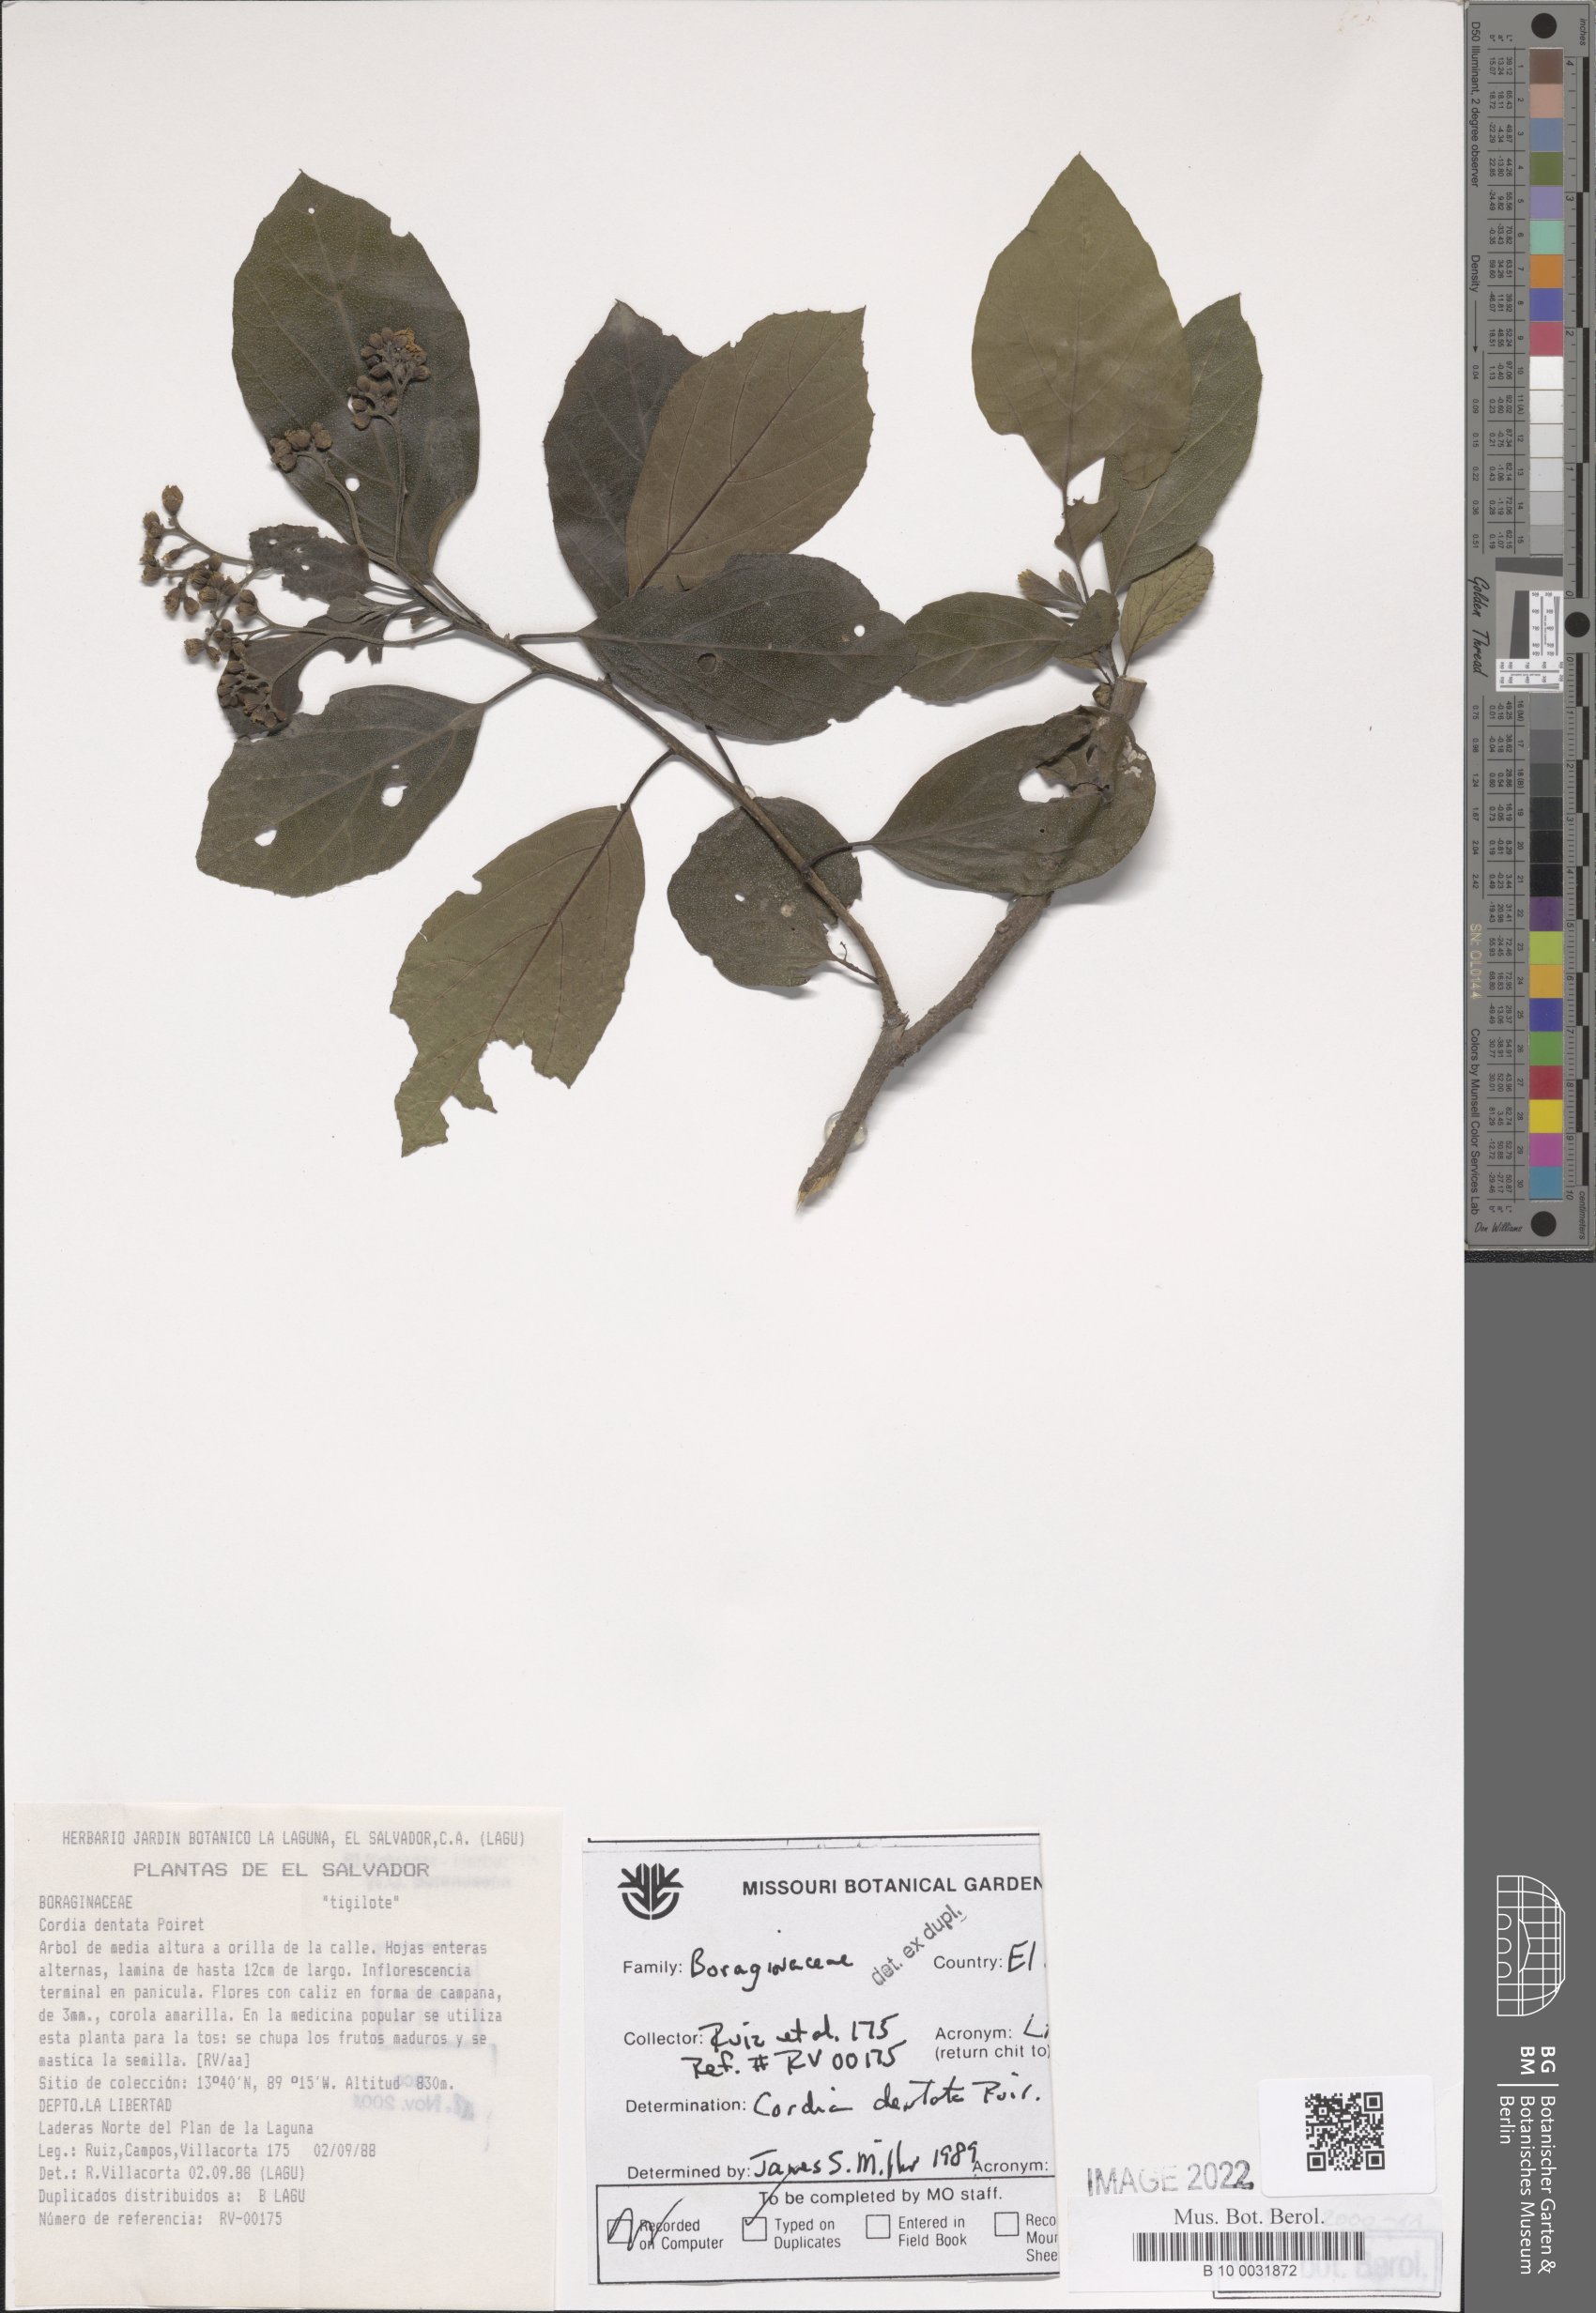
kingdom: Plantae
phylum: Tracheophyta
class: Magnoliopsida
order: Boraginales
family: Cordiaceae
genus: Cordia
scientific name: Cordia dentata
